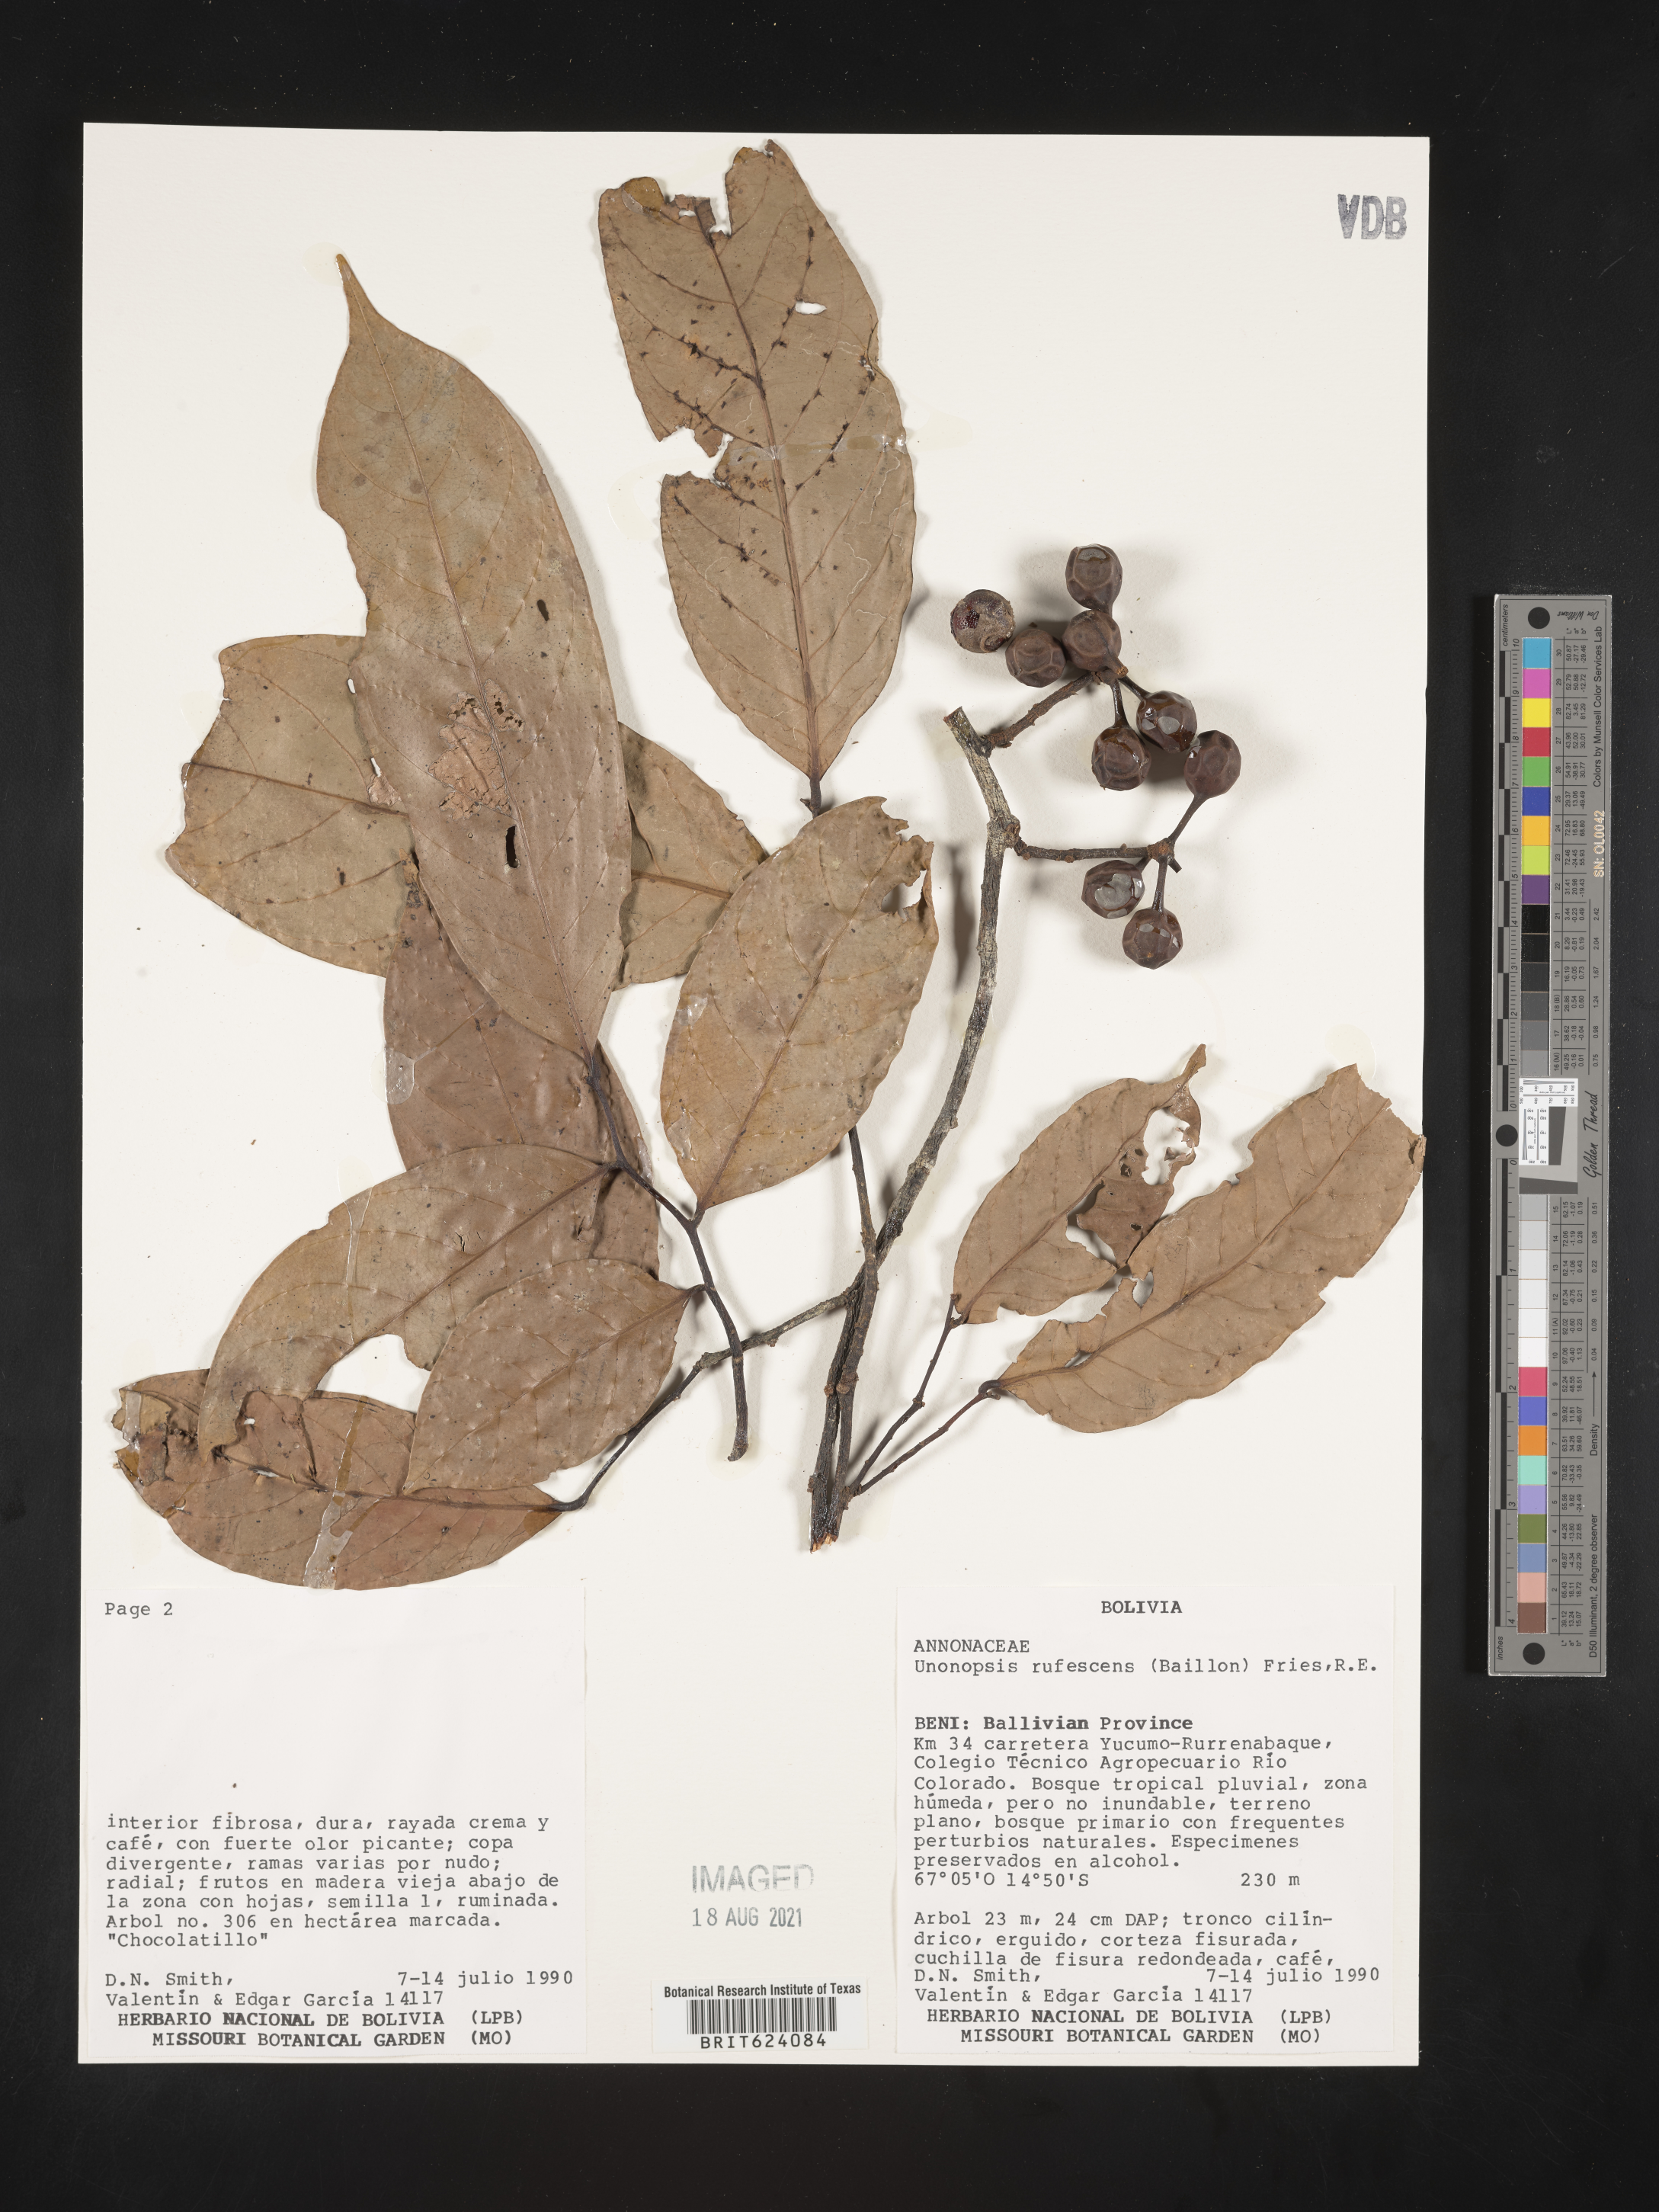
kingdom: Plantae
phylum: Tracheophyta
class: Magnoliopsida
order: Magnoliales
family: Annonaceae
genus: Unonopsis
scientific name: Unonopsis rufescens
